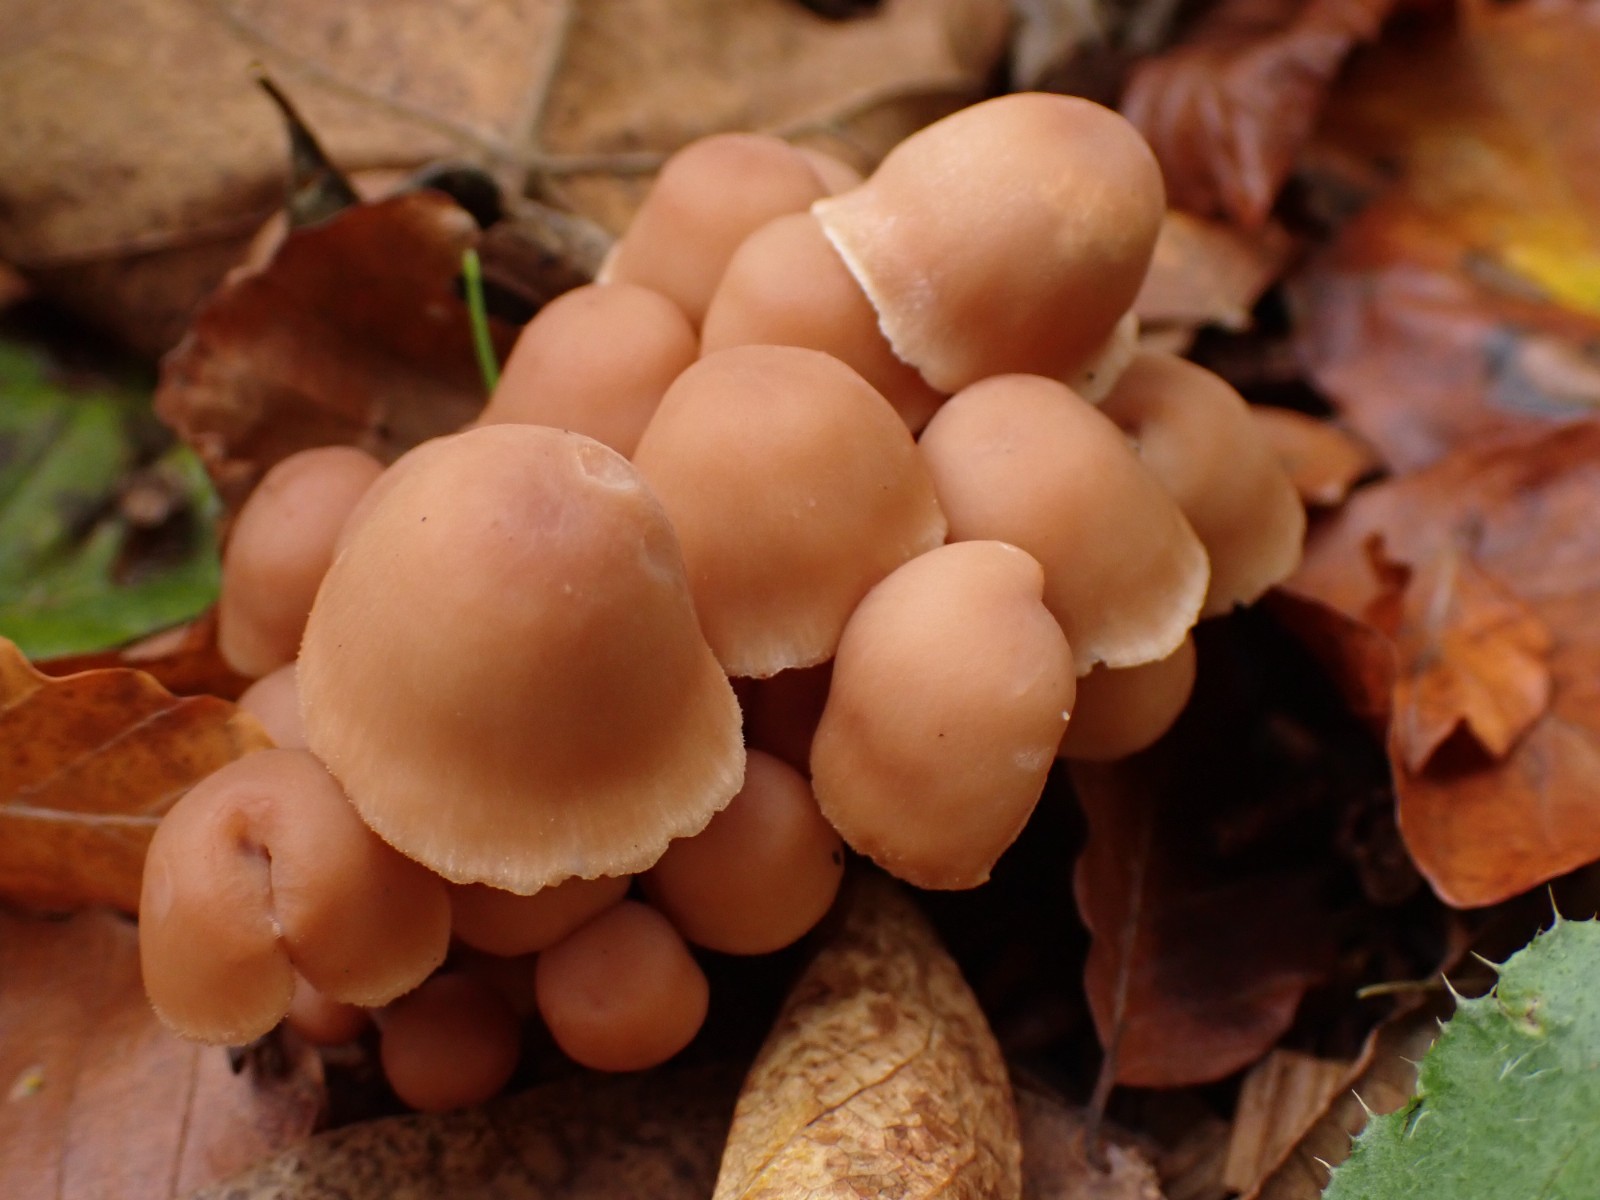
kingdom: Fungi
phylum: Basidiomycota
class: Agaricomycetes
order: Agaricales
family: Omphalotaceae
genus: Collybiopsis
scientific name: Collybiopsis confluens
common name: knippe-fladhat
